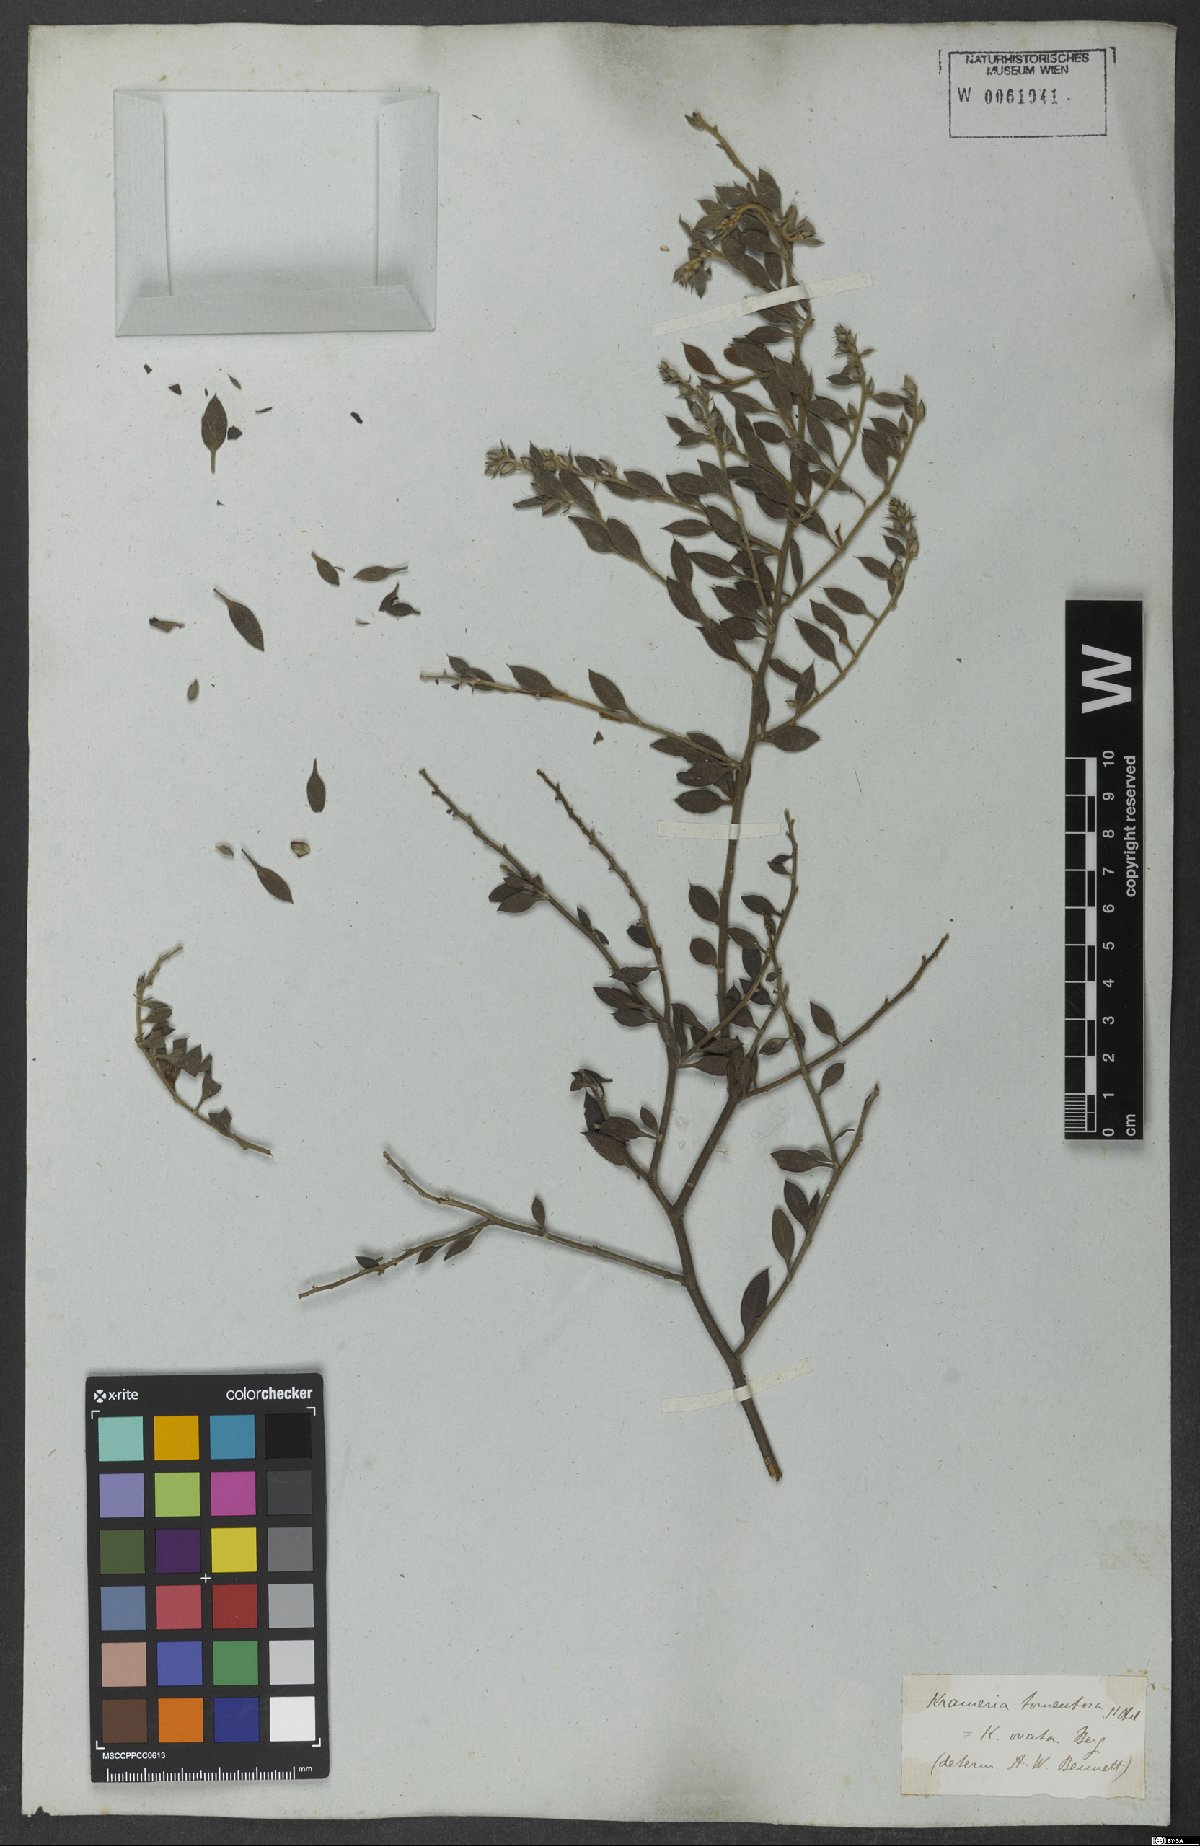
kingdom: Plantae
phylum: Tracheophyta
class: Magnoliopsida
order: Zygophyllales
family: Krameriaceae
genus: Krameria
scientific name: Krameria tomentosa
